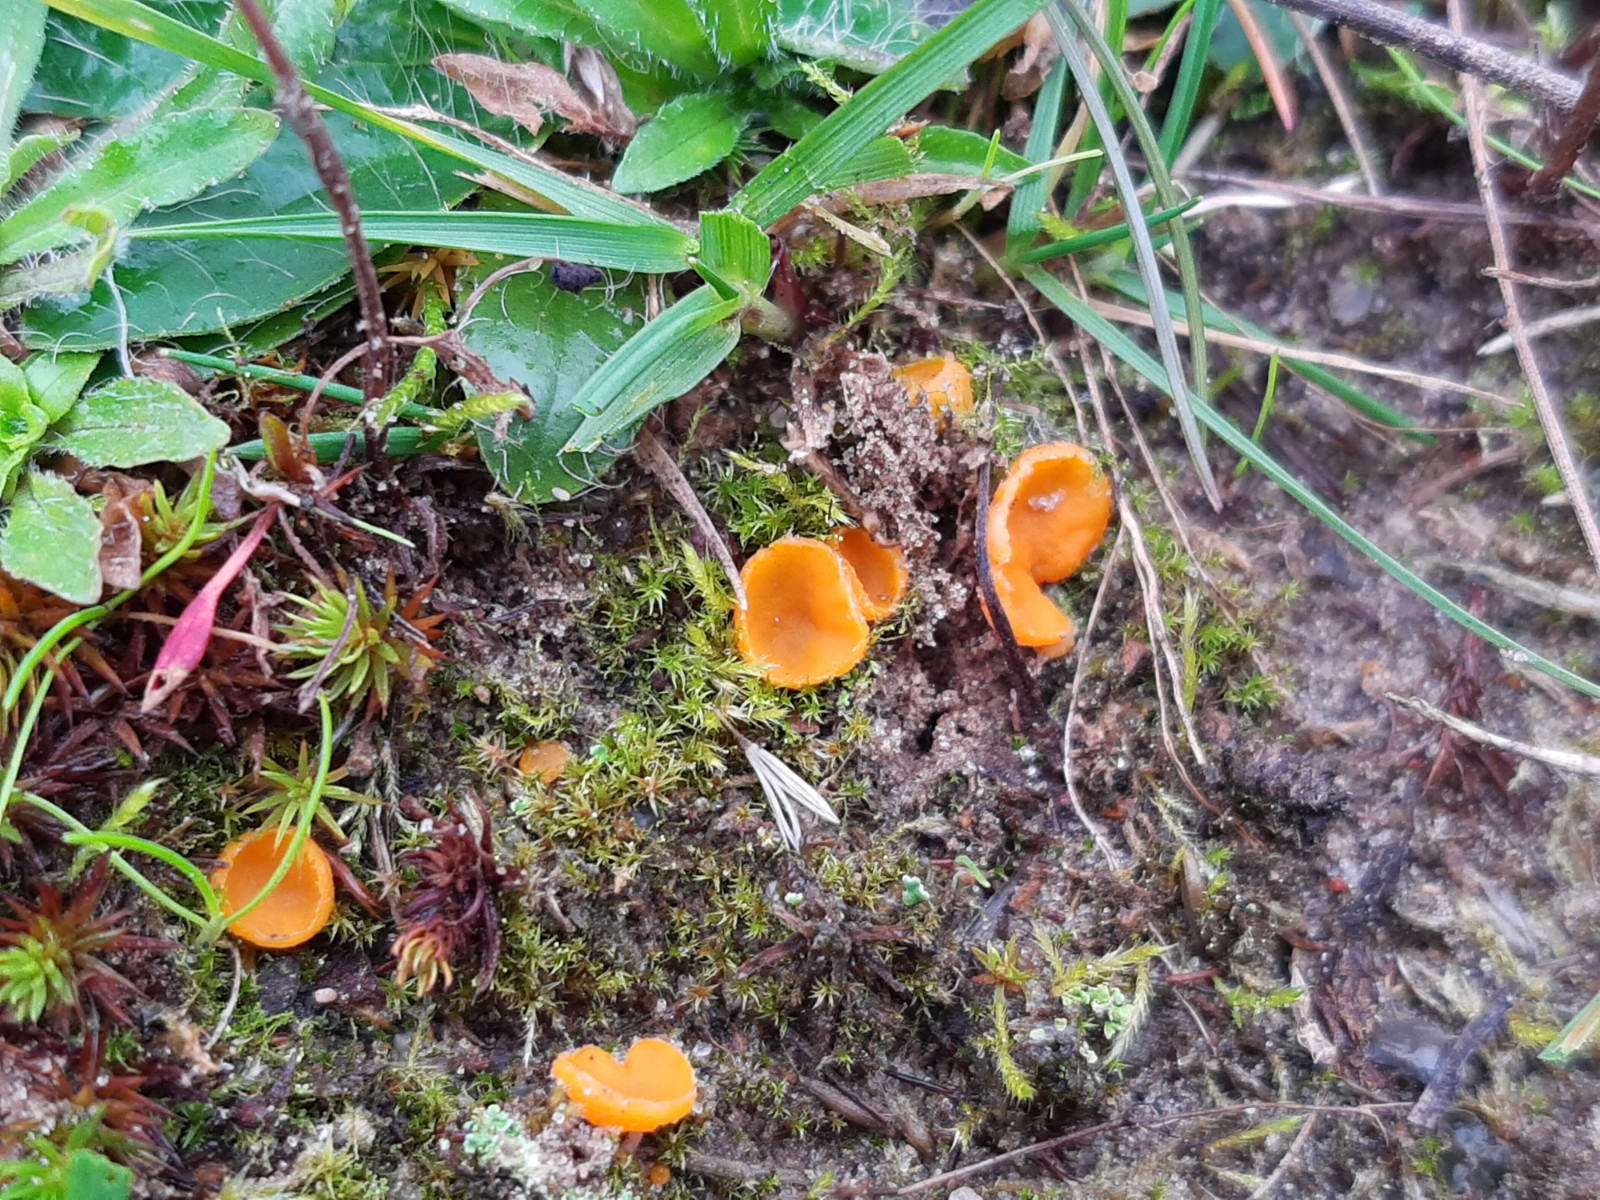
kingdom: Fungi
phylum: Ascomycota
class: Pezizomycetes
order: Pezizales
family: Pyronemataceae
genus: Neottiella
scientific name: Neottiella rutilans
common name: jomfruhår-mosbæger
